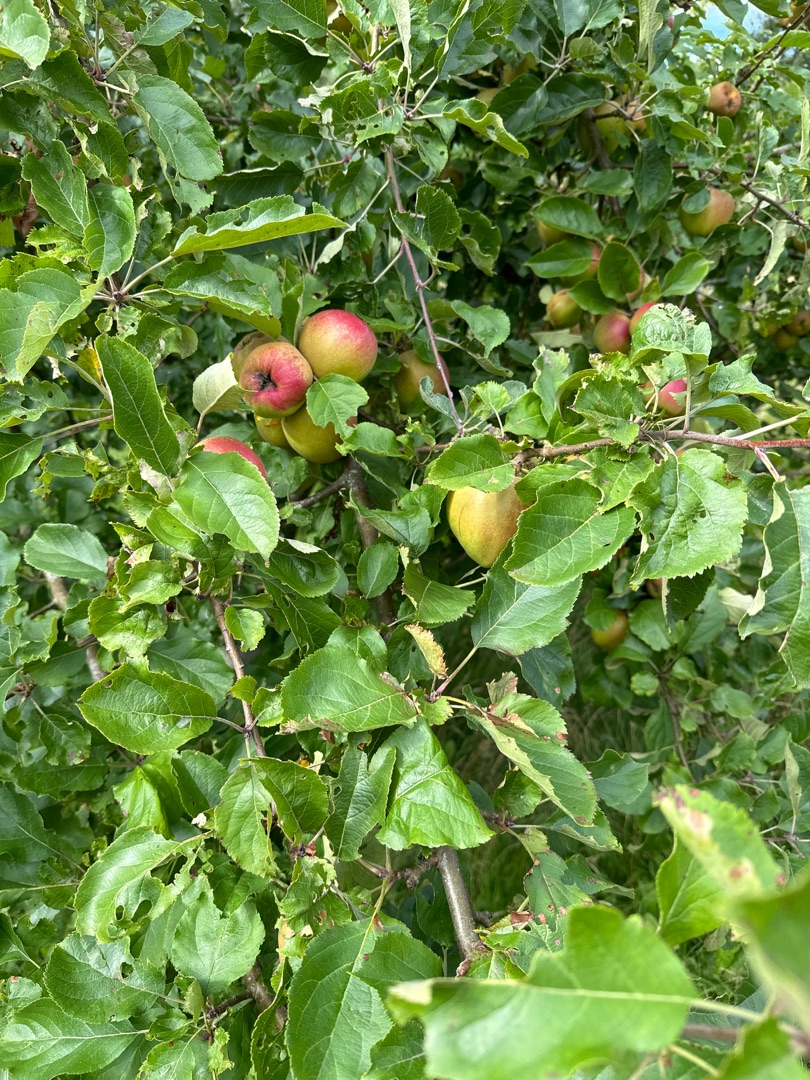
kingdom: Plantae
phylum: Tracheophyta
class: Magnoliopsida
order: Rosales
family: Rosaceae
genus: Malus
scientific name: Malus domestica
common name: Sød-æble
